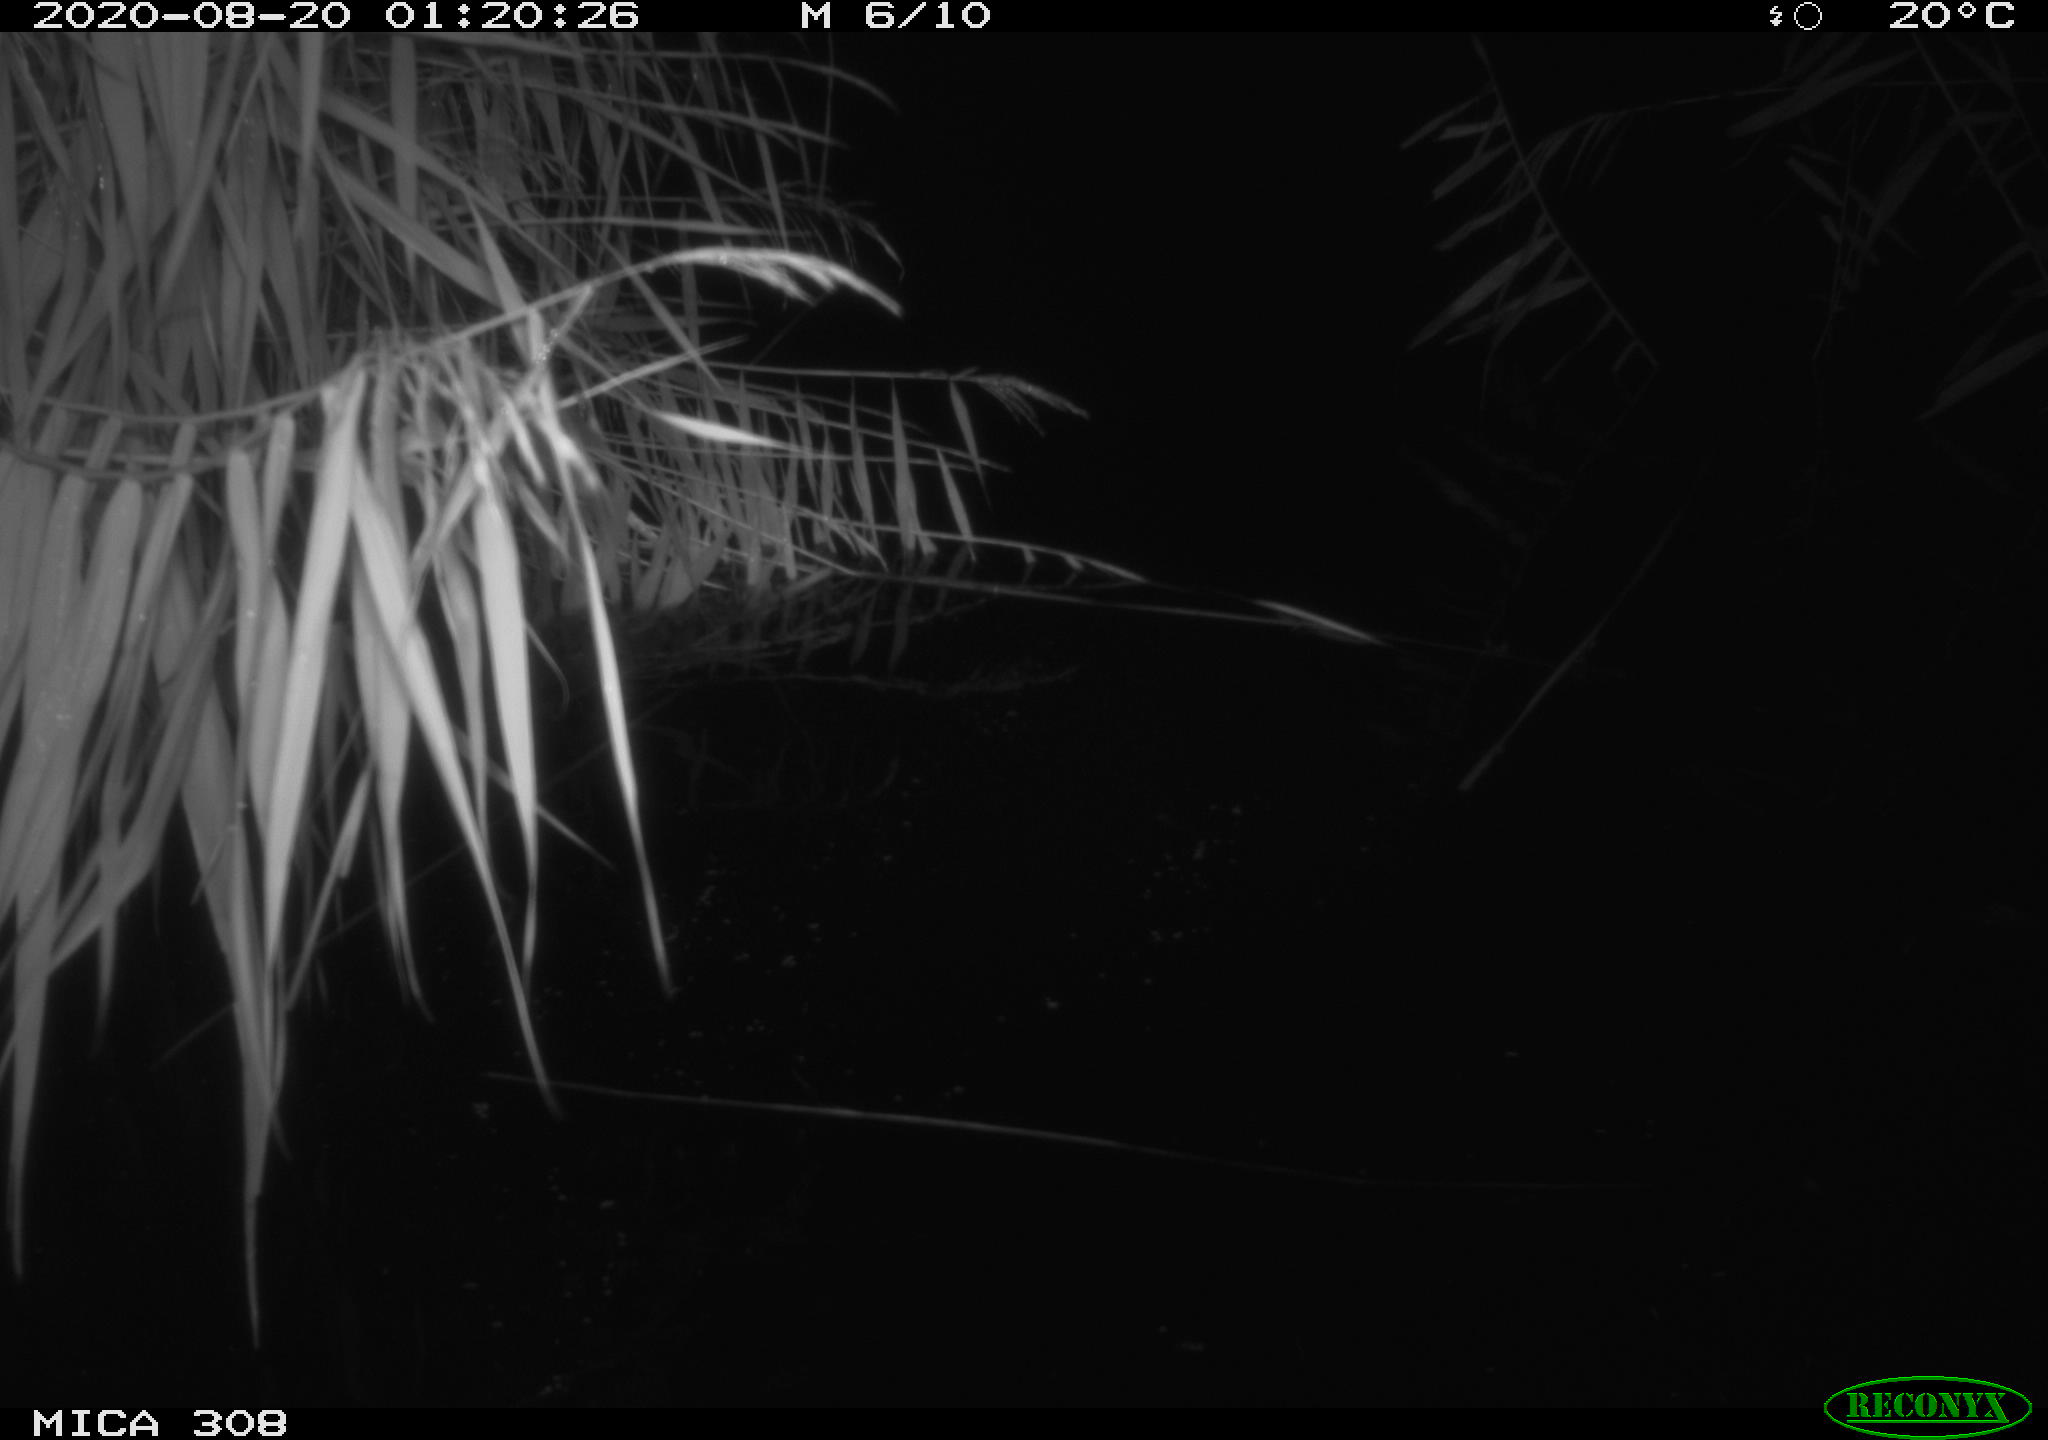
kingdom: Animalia
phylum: Chordata
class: Mammalia
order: Rodentia
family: Cricetidae
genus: Ondatra
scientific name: Ondatra zibethicus
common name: Muskrat
